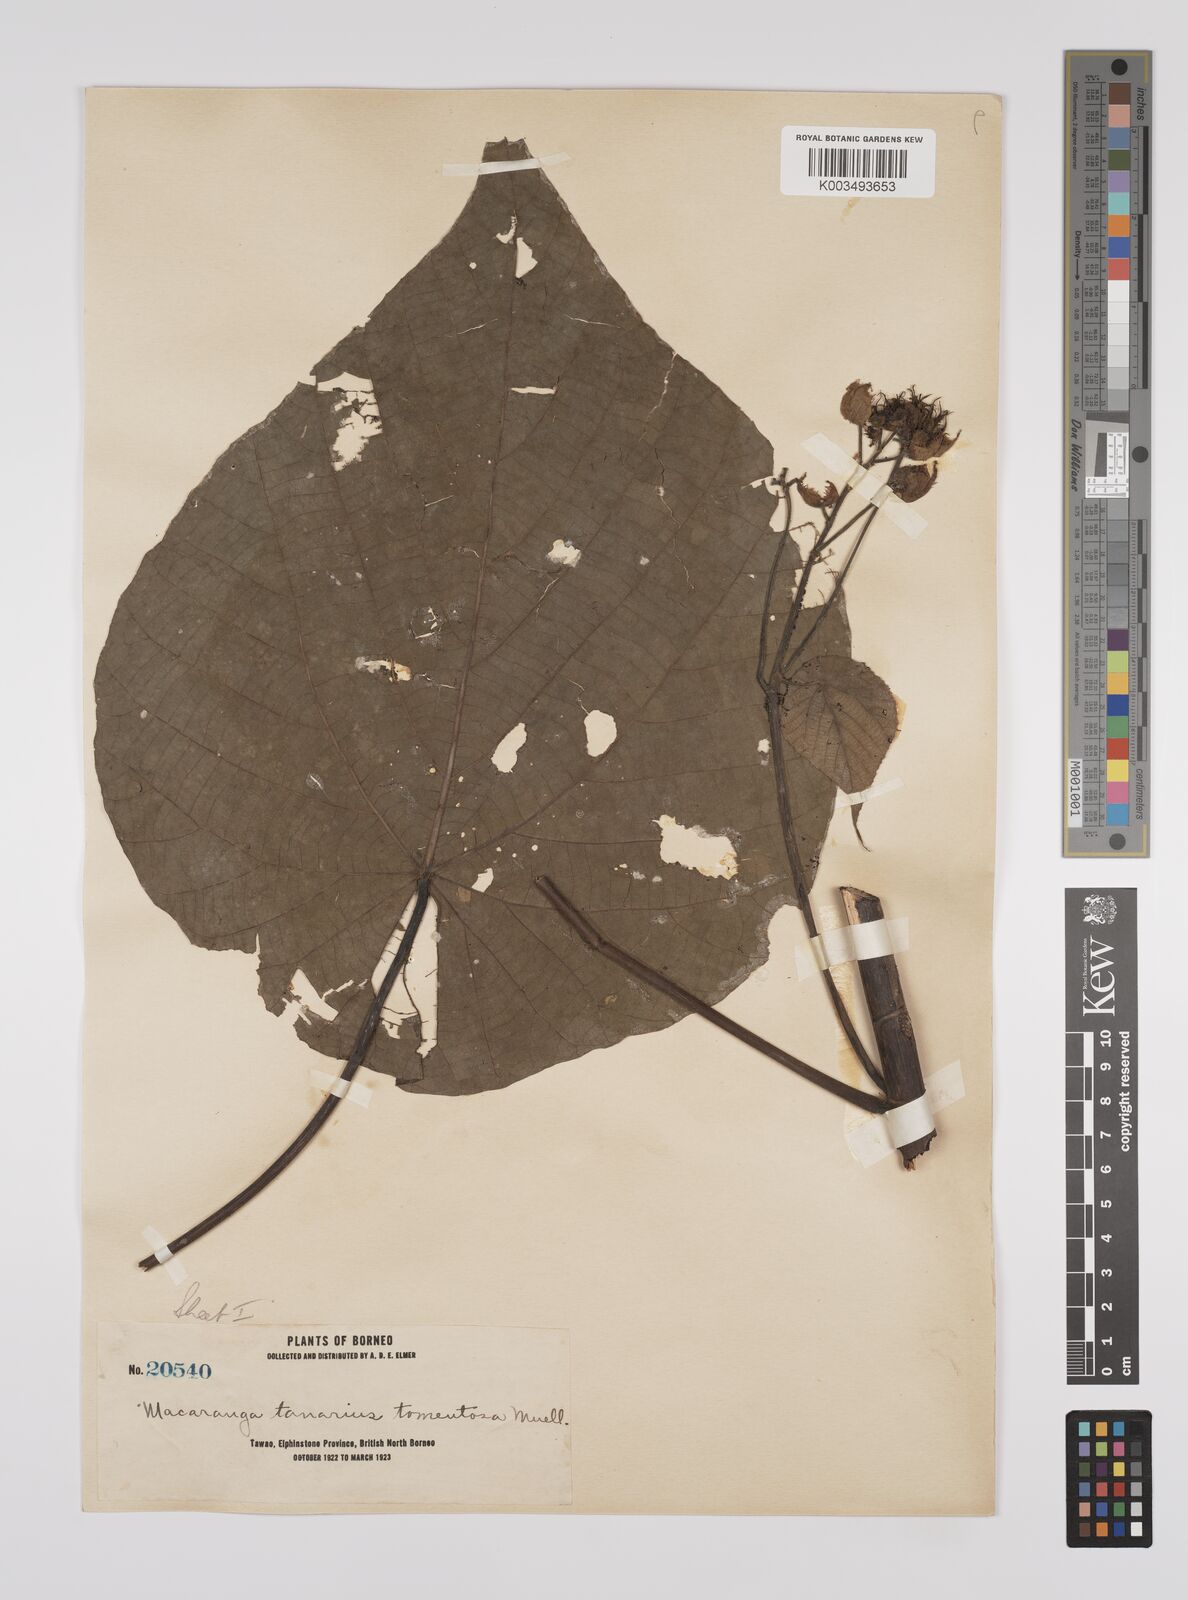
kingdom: Plantae
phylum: Tracheophyta
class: Magnoliopsida
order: Malpighiales
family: Euphorbiaceae
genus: Macaranga
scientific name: Macaranga tanarius
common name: Parasol leaf tree
